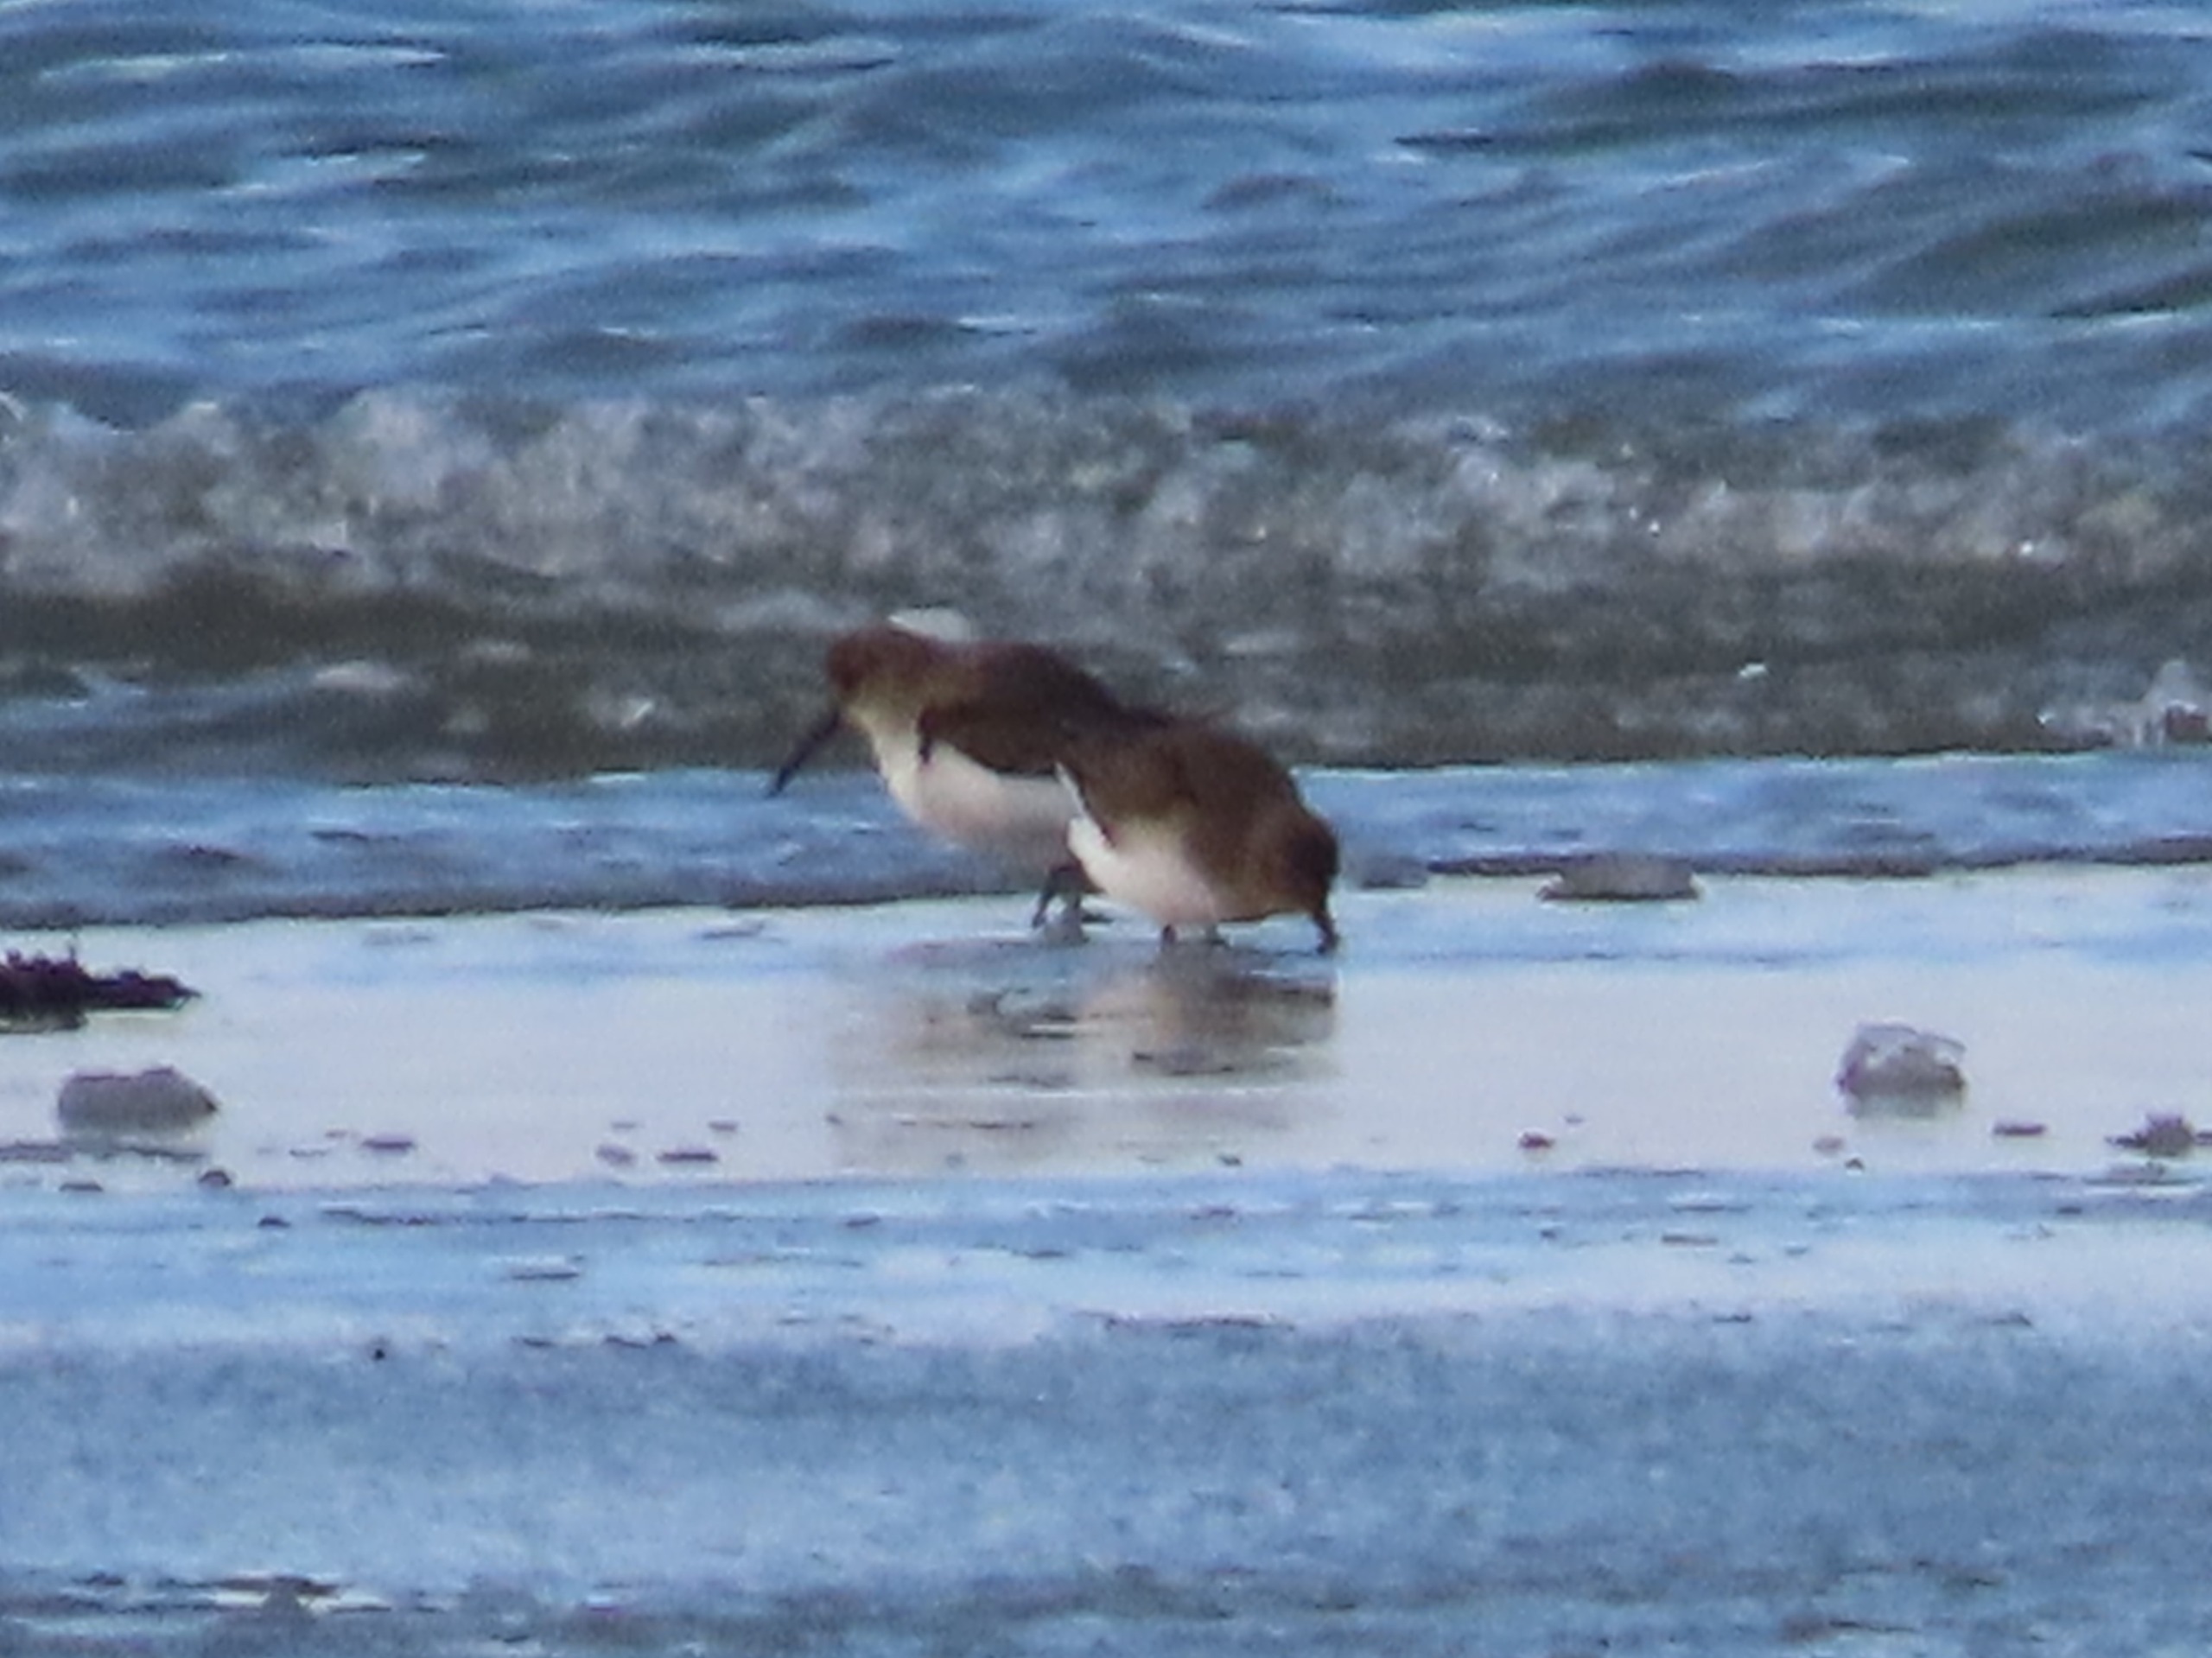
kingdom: Animalia
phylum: Chordata
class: Aves
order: Charadriiformes
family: Scolopacidae
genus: Calidris
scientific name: Calidris alpina
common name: Almindelig ryle
